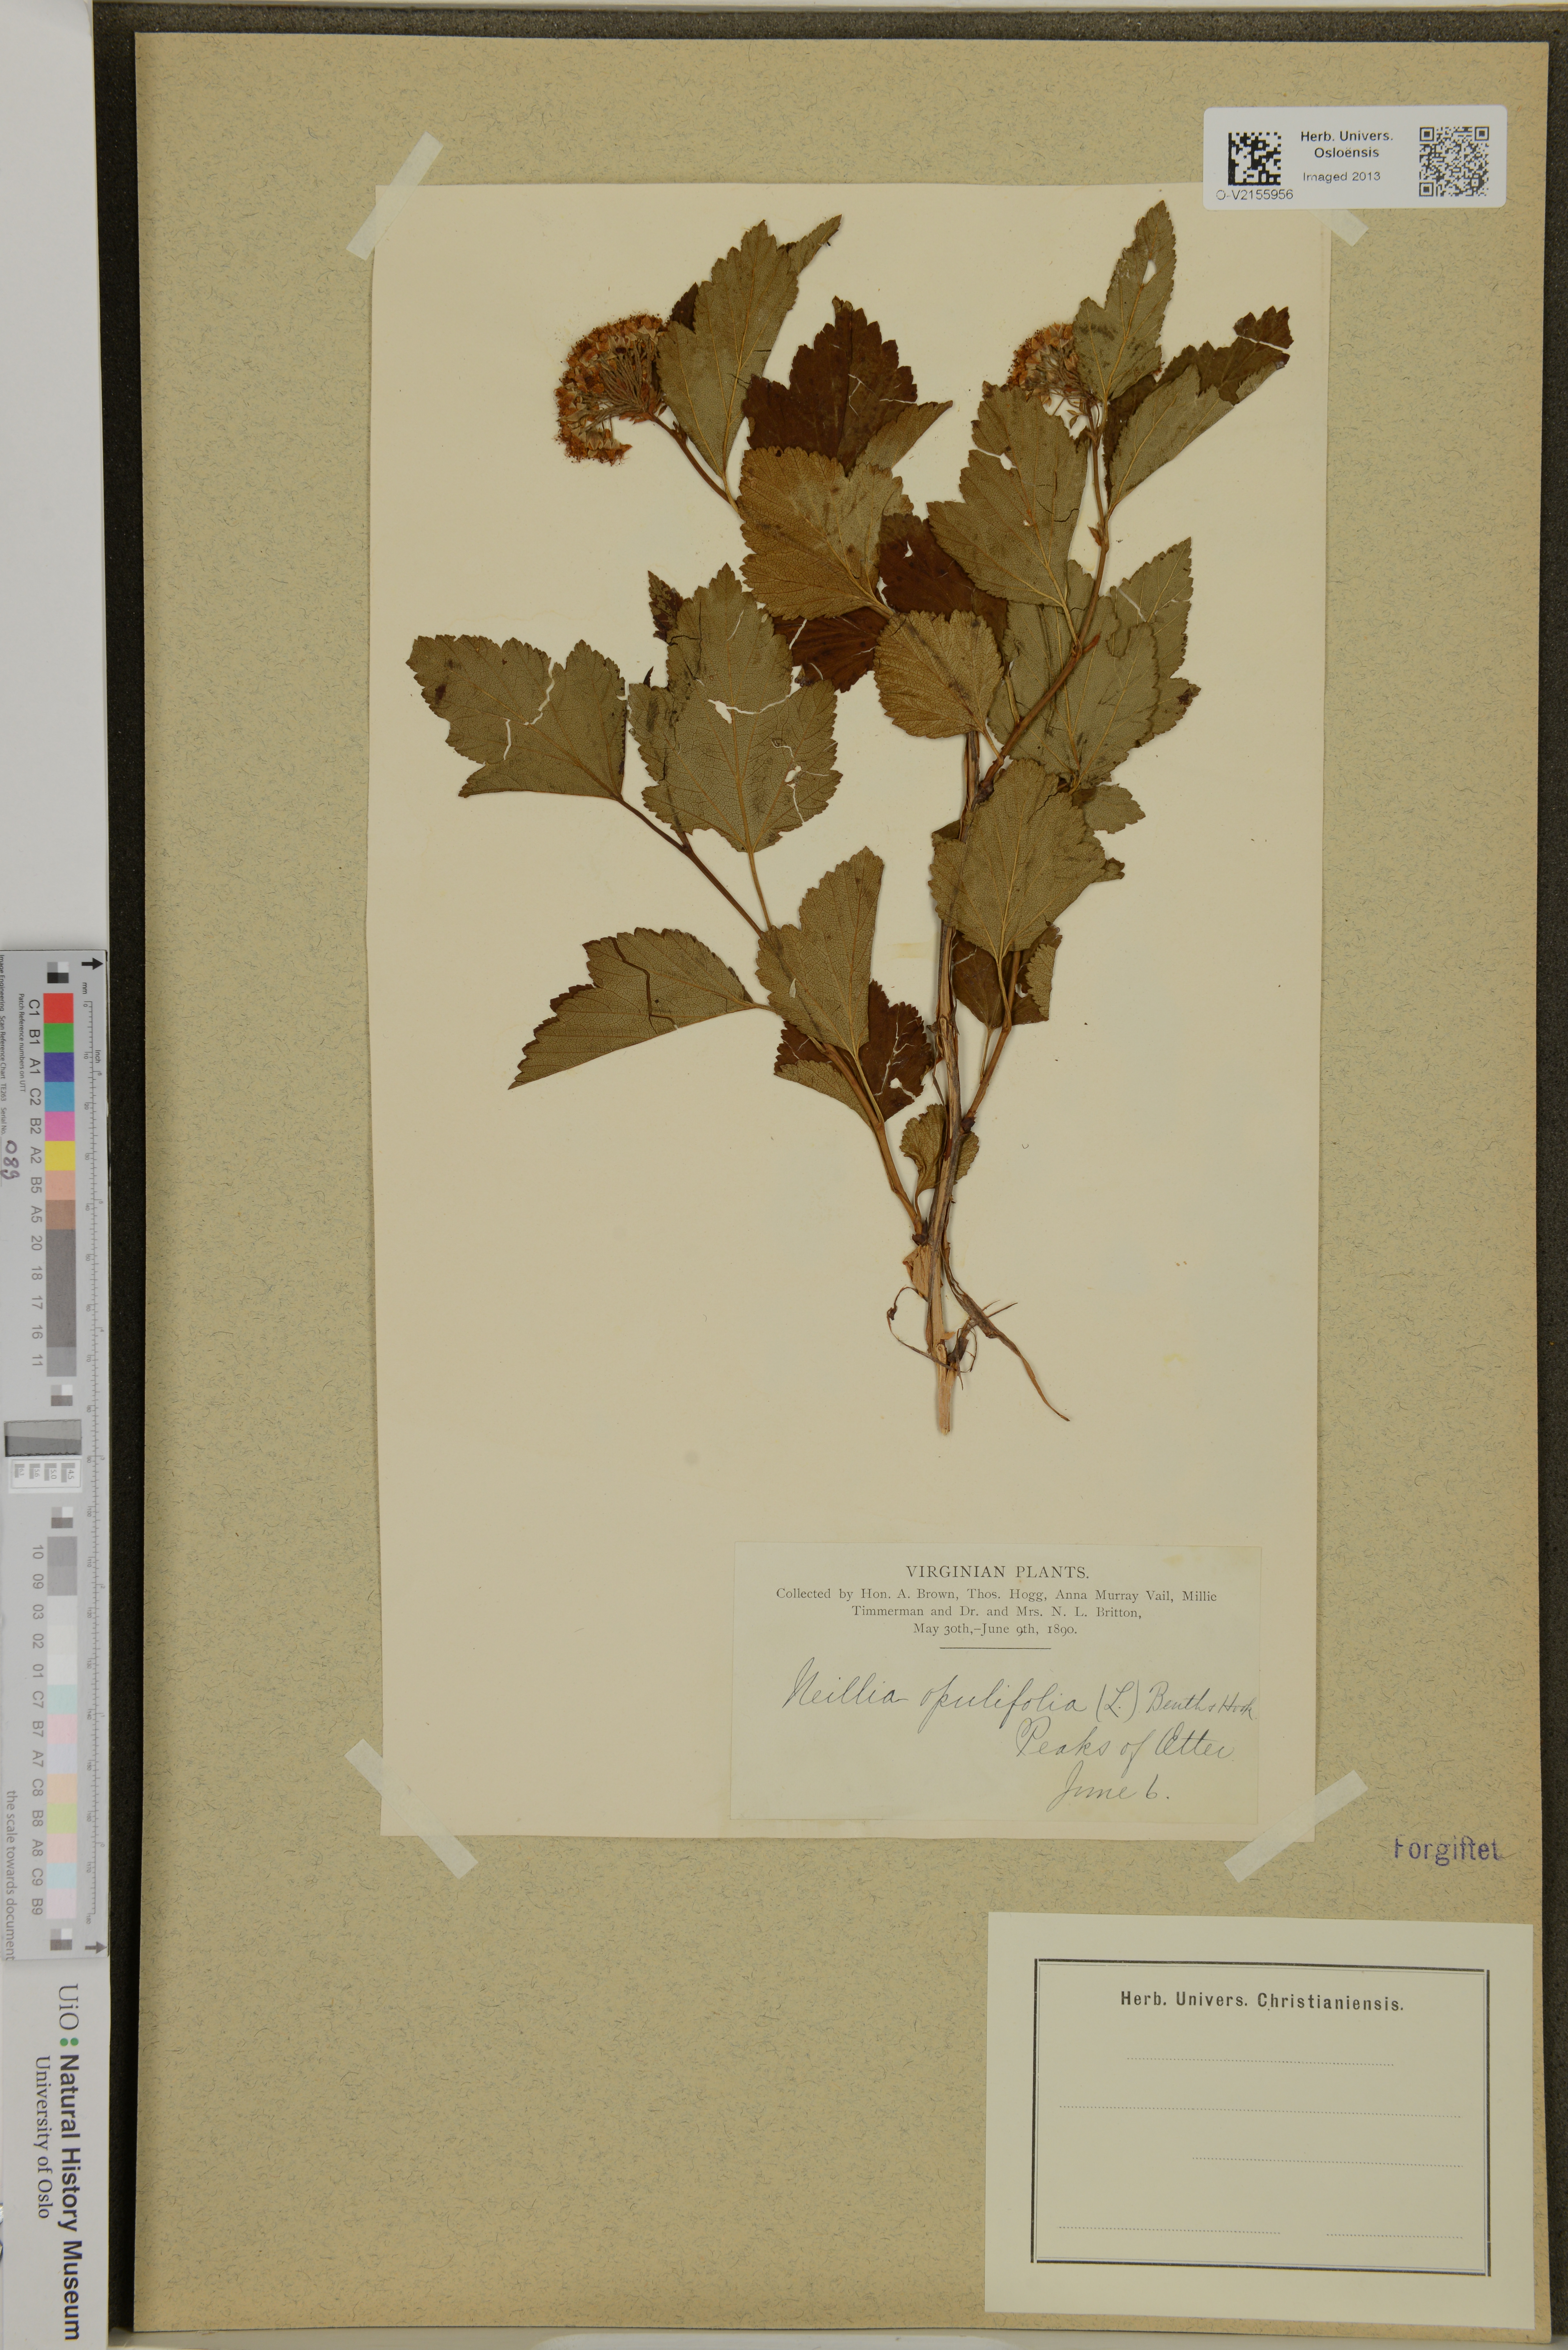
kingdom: Plantae
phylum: Tracheophyta
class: Magnoliopsida
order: Rosales
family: Rosaceae
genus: Physocarpus
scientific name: Physocarpus opulifolius
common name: Ninebark
